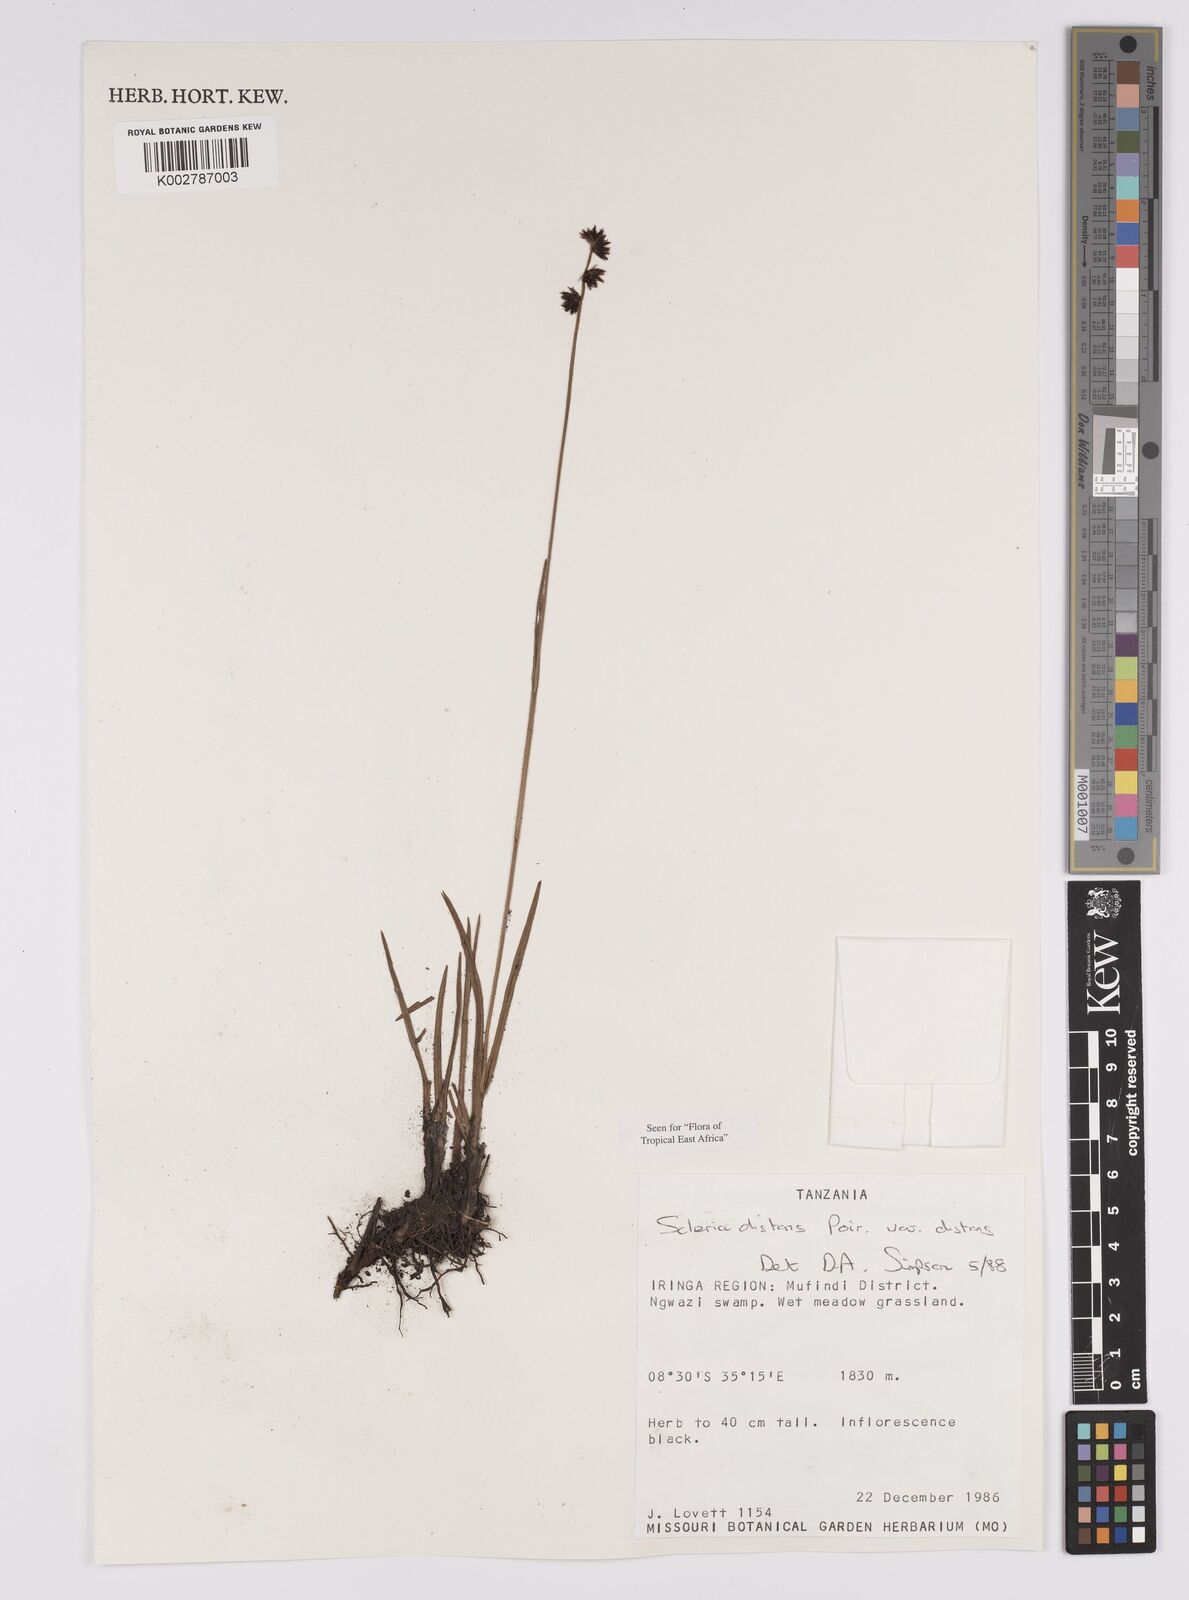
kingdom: Plantae
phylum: Tracheophyta
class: Liliopsida
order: Poales
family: Cyperaceae
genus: Scleria
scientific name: Scleria distans
